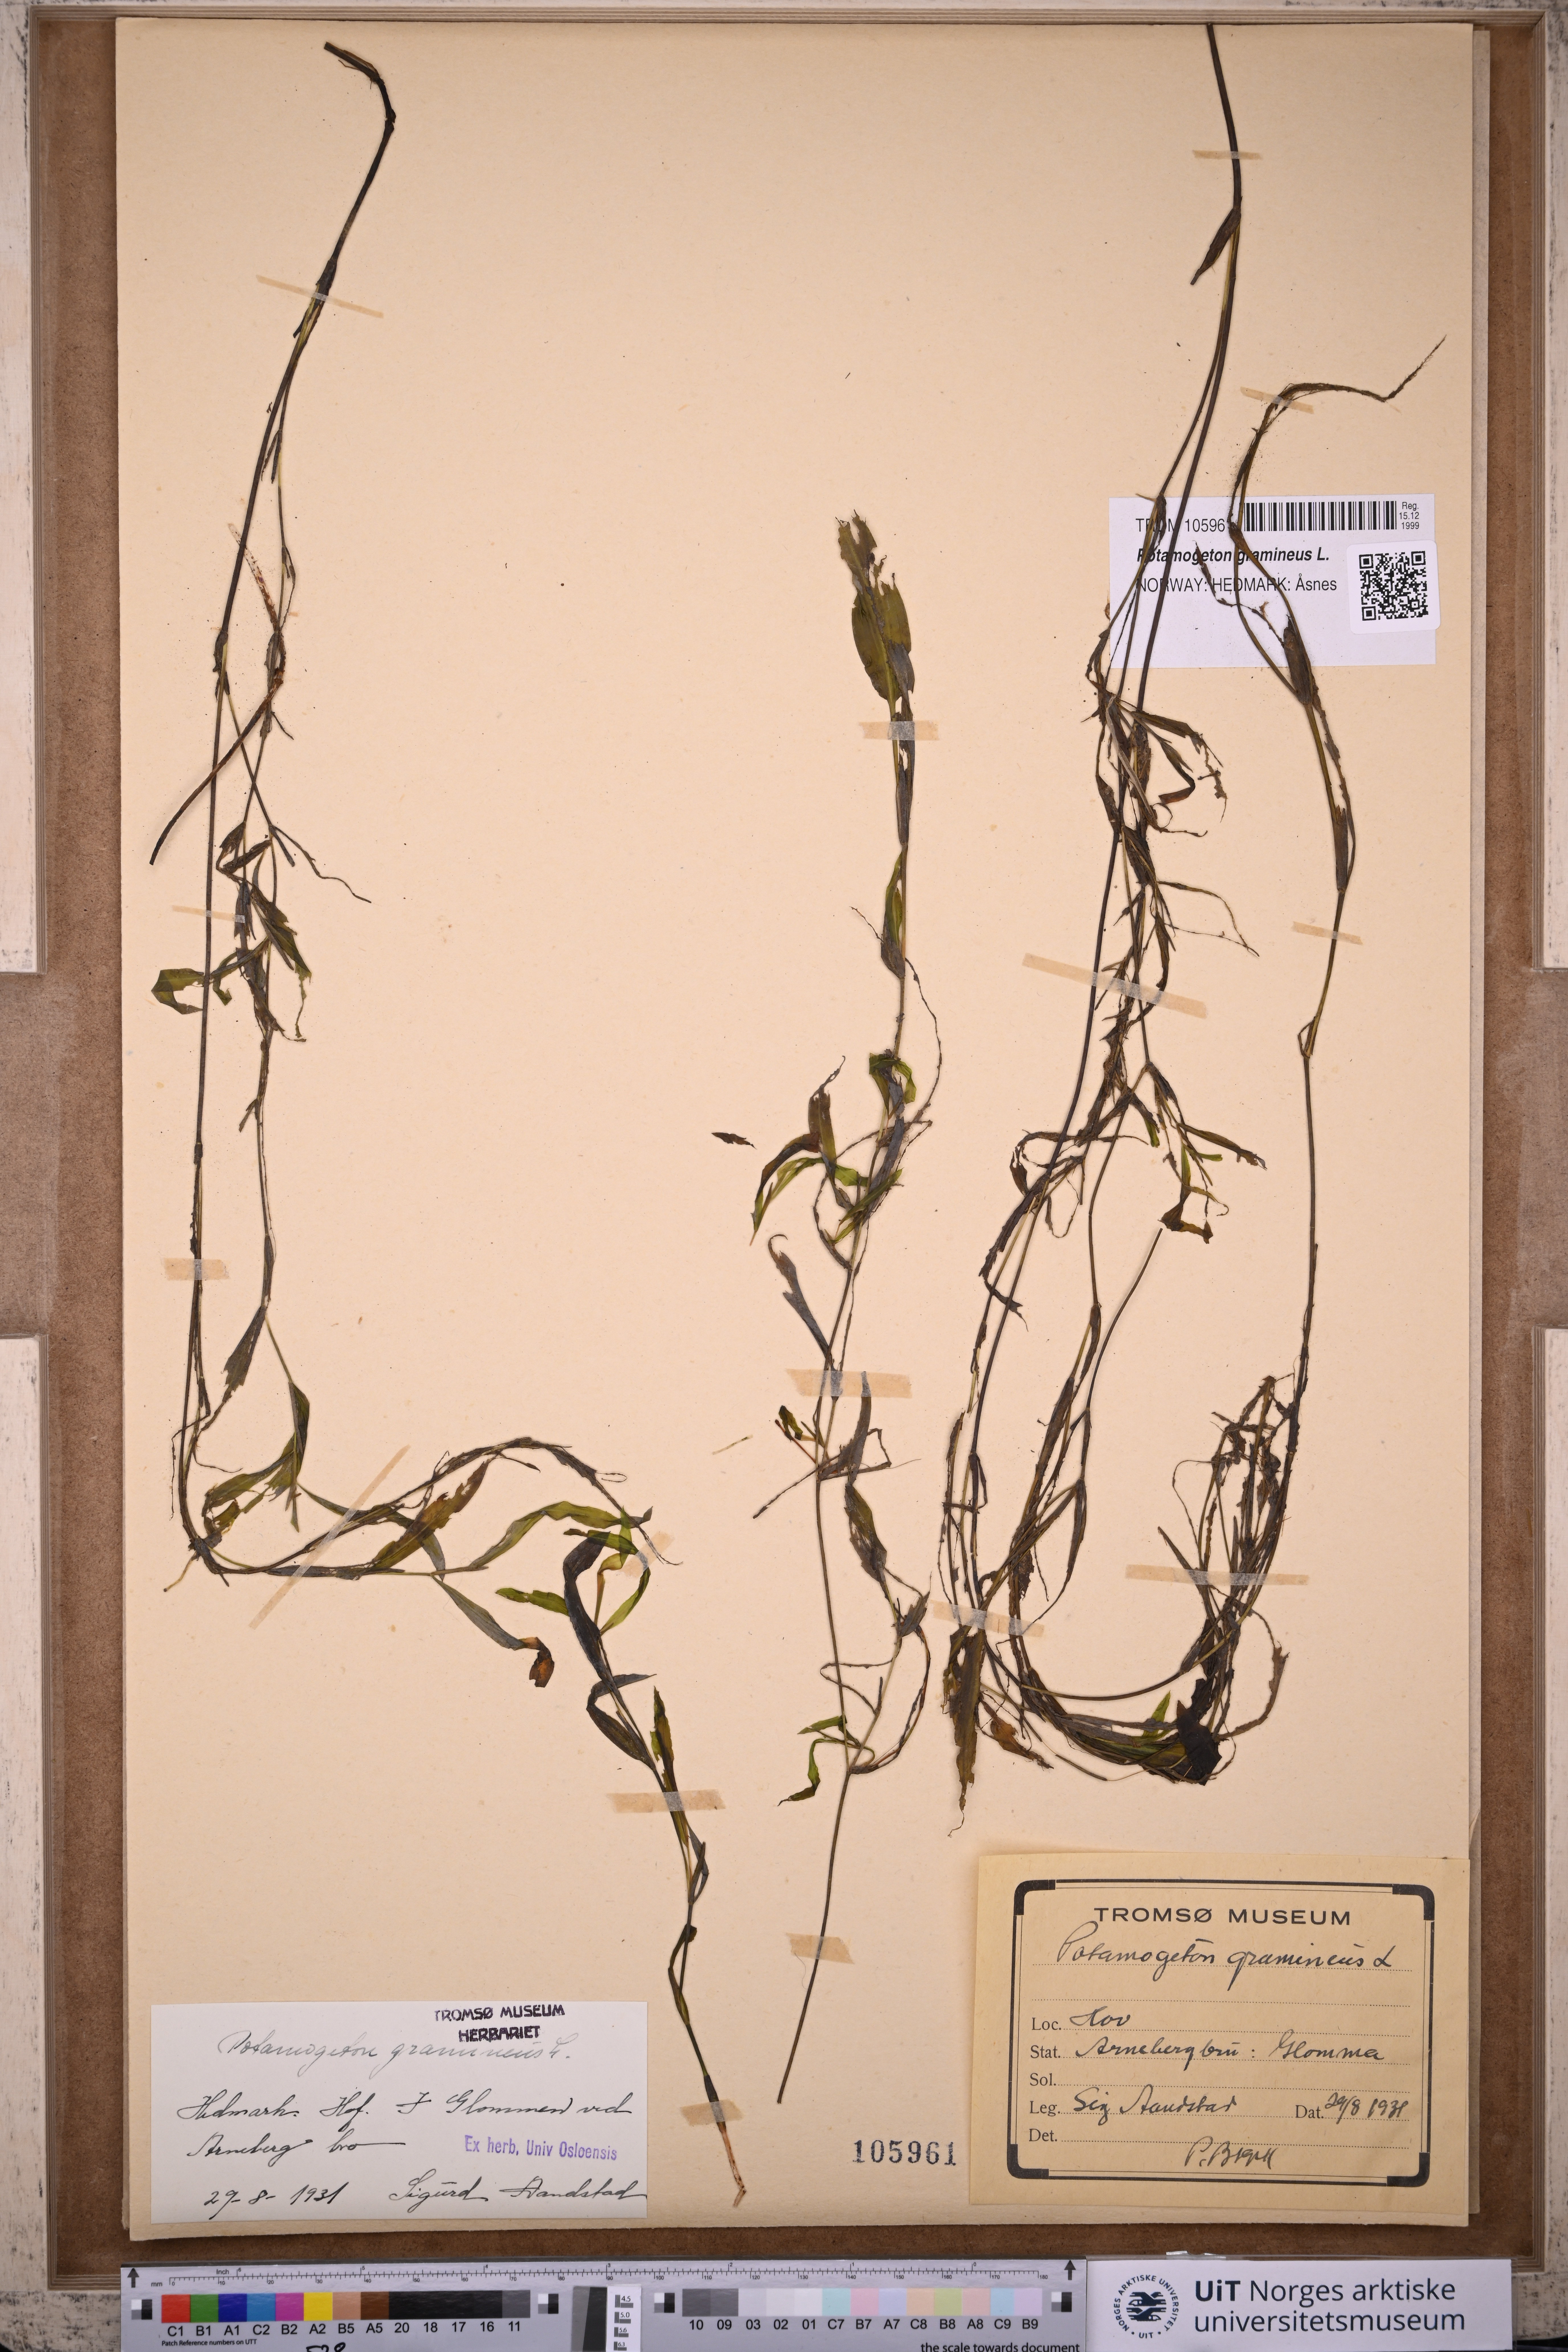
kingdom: Plantae
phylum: Tracheophyta
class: Liliopsida
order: Alismatales
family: Potamogetonaceae
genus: Potamogeton
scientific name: Potamogeton gramineus
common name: Various-leaved pondweed
